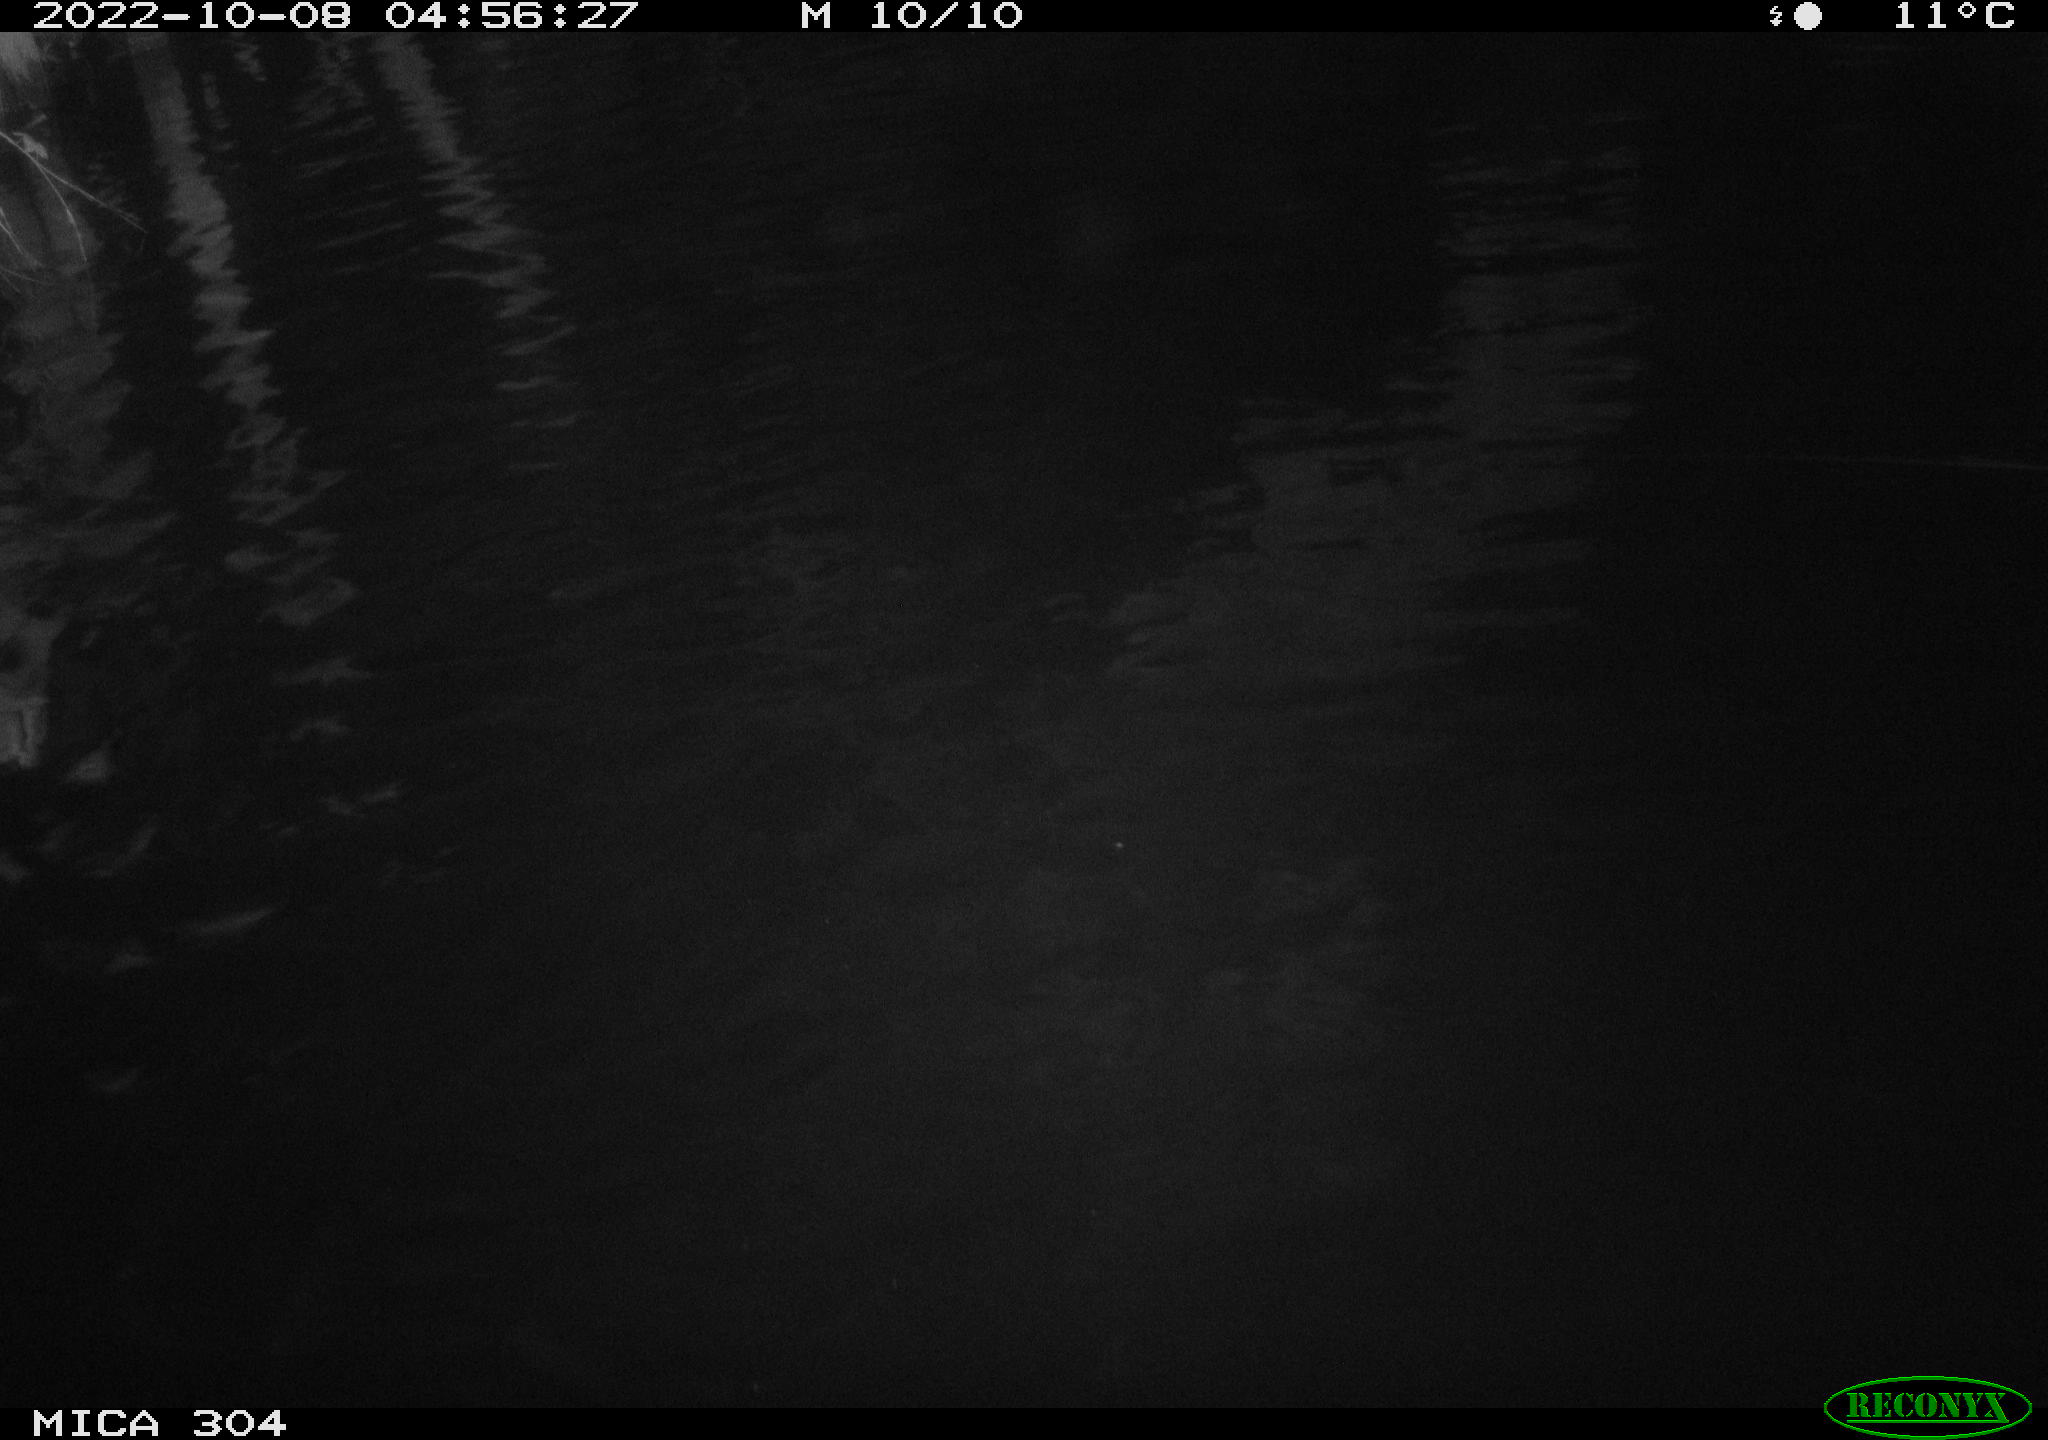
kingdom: Animalia
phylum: Chordata
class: Mammalia
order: Rodentia
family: Cricetidae
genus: Ondatra
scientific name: Ondatra zibethicus
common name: Muskrat
